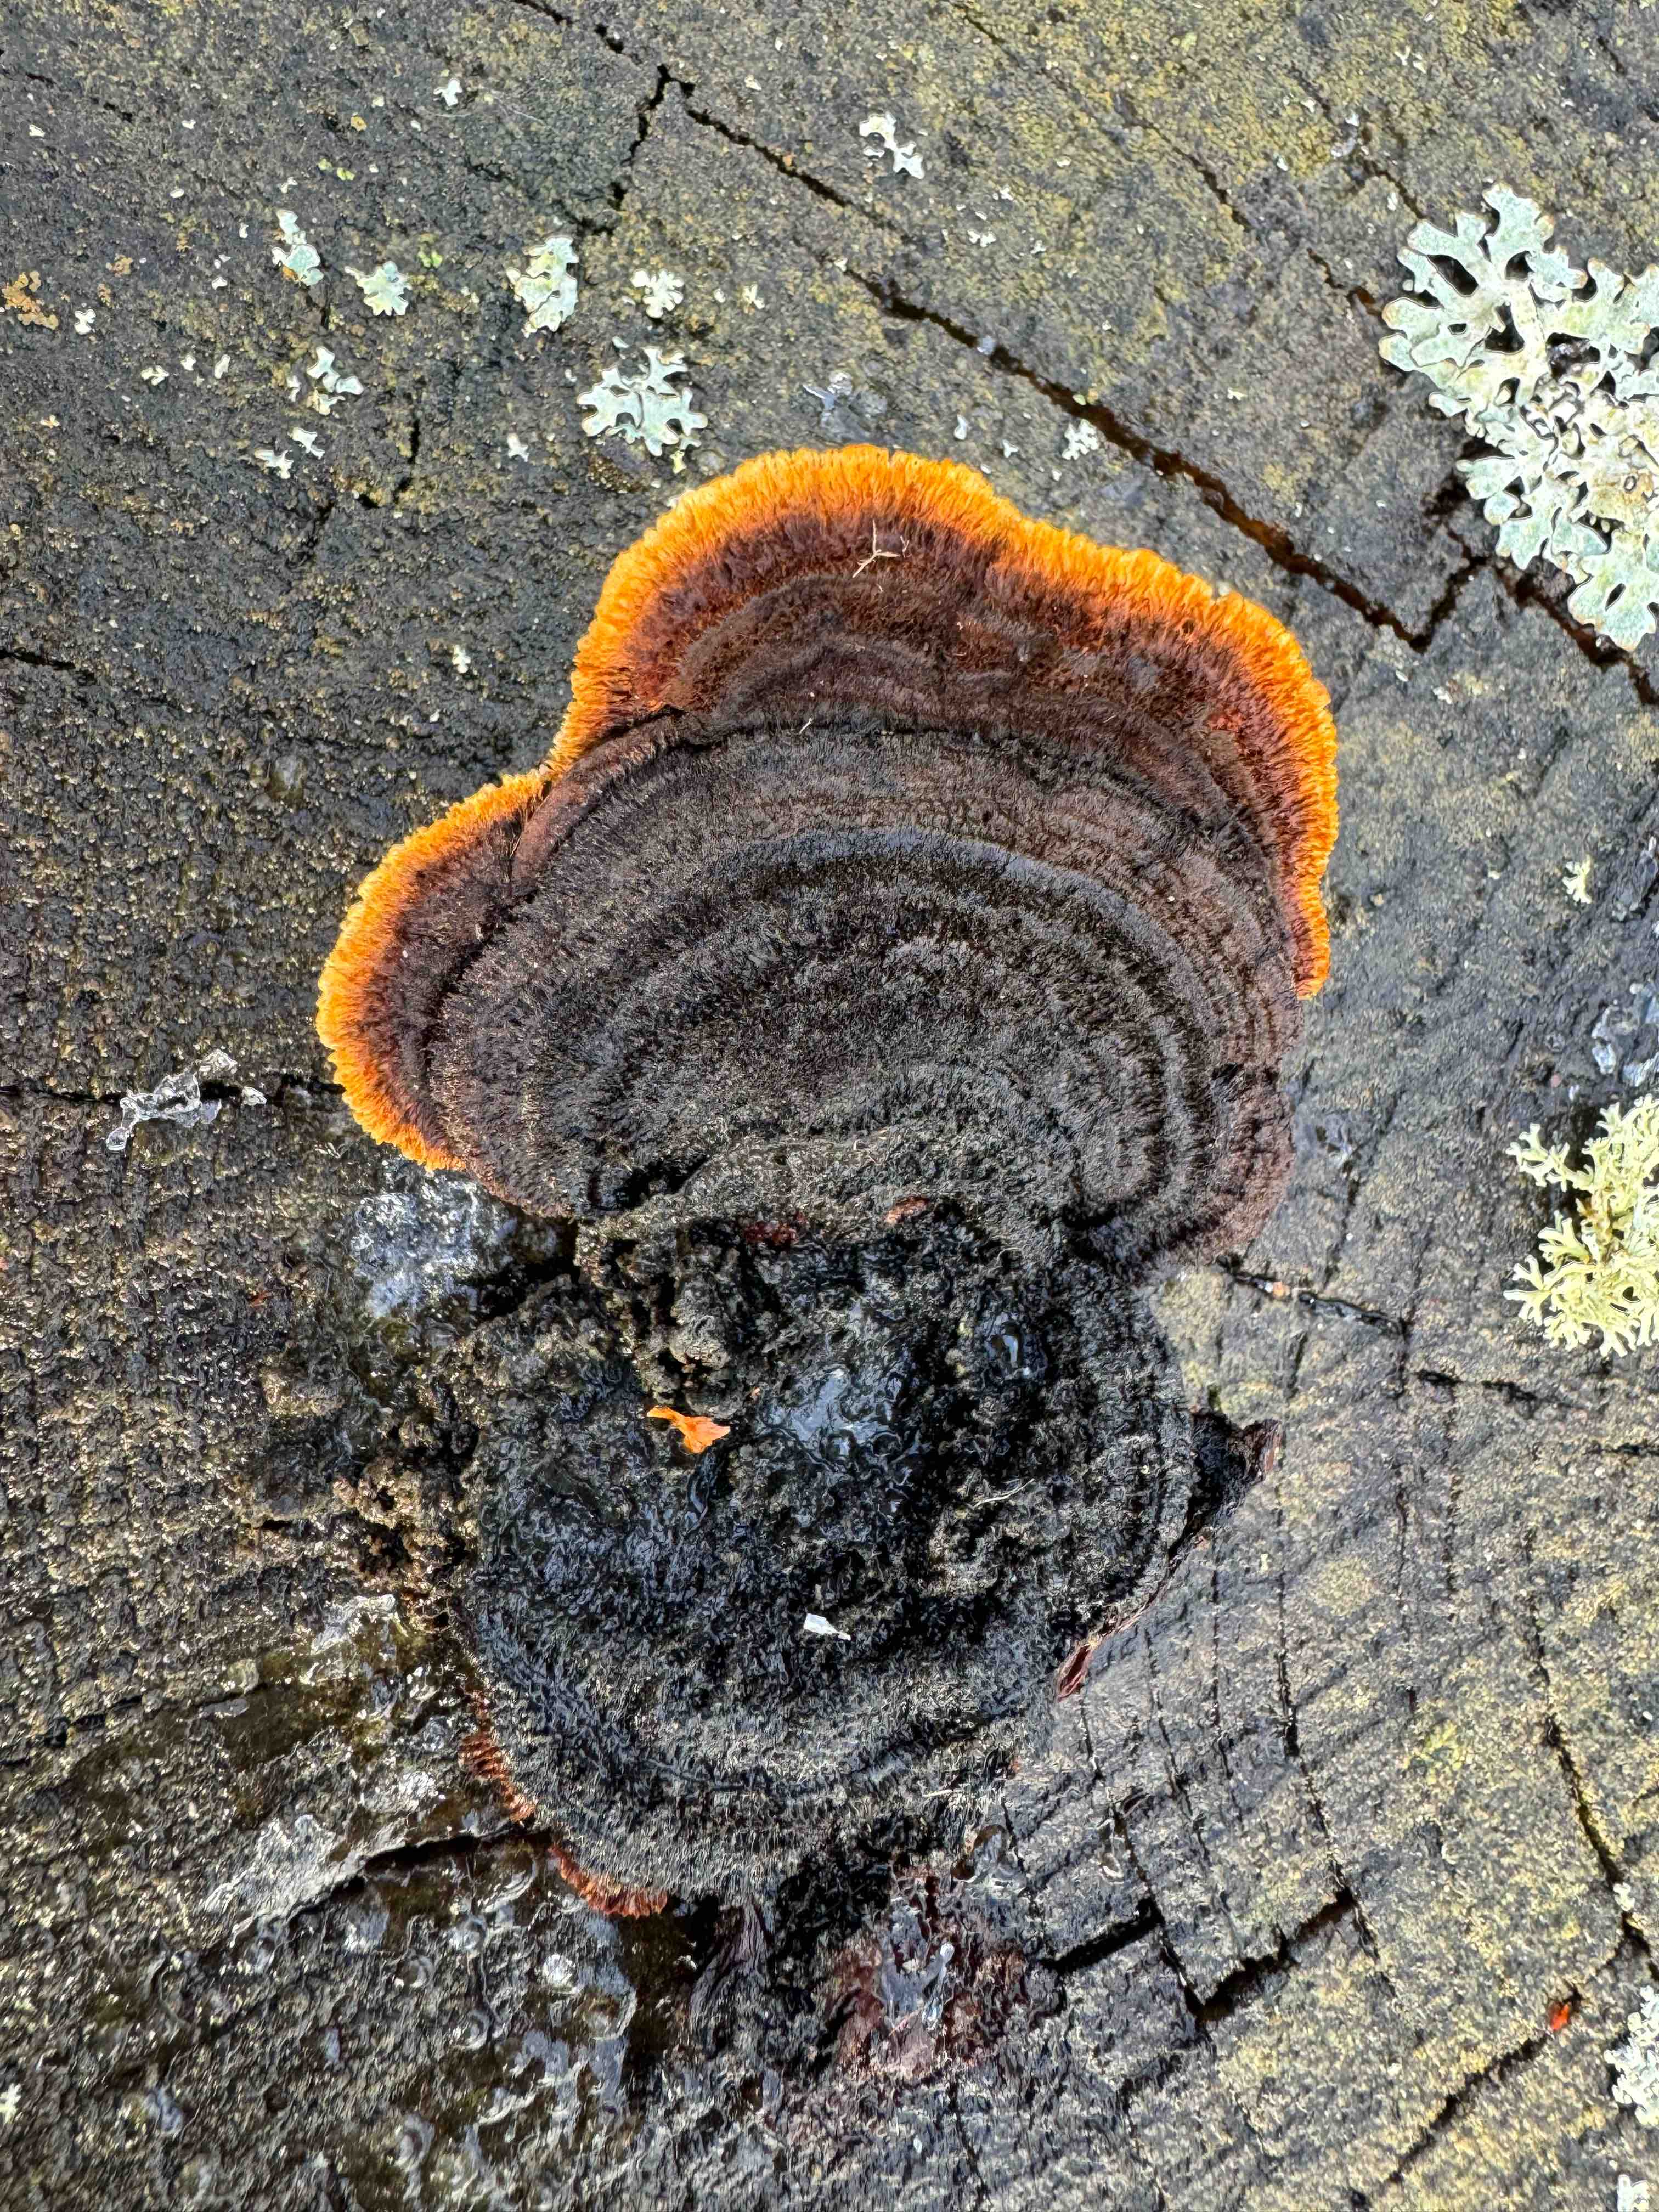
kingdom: Fungi
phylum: Basidiomycota
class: Agaricomycetes
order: Gloeophyllales
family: Gloeophyllaceae
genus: Gloeophyllum
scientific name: Gloeophyllum sepiarium
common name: fyrre-korkhat
